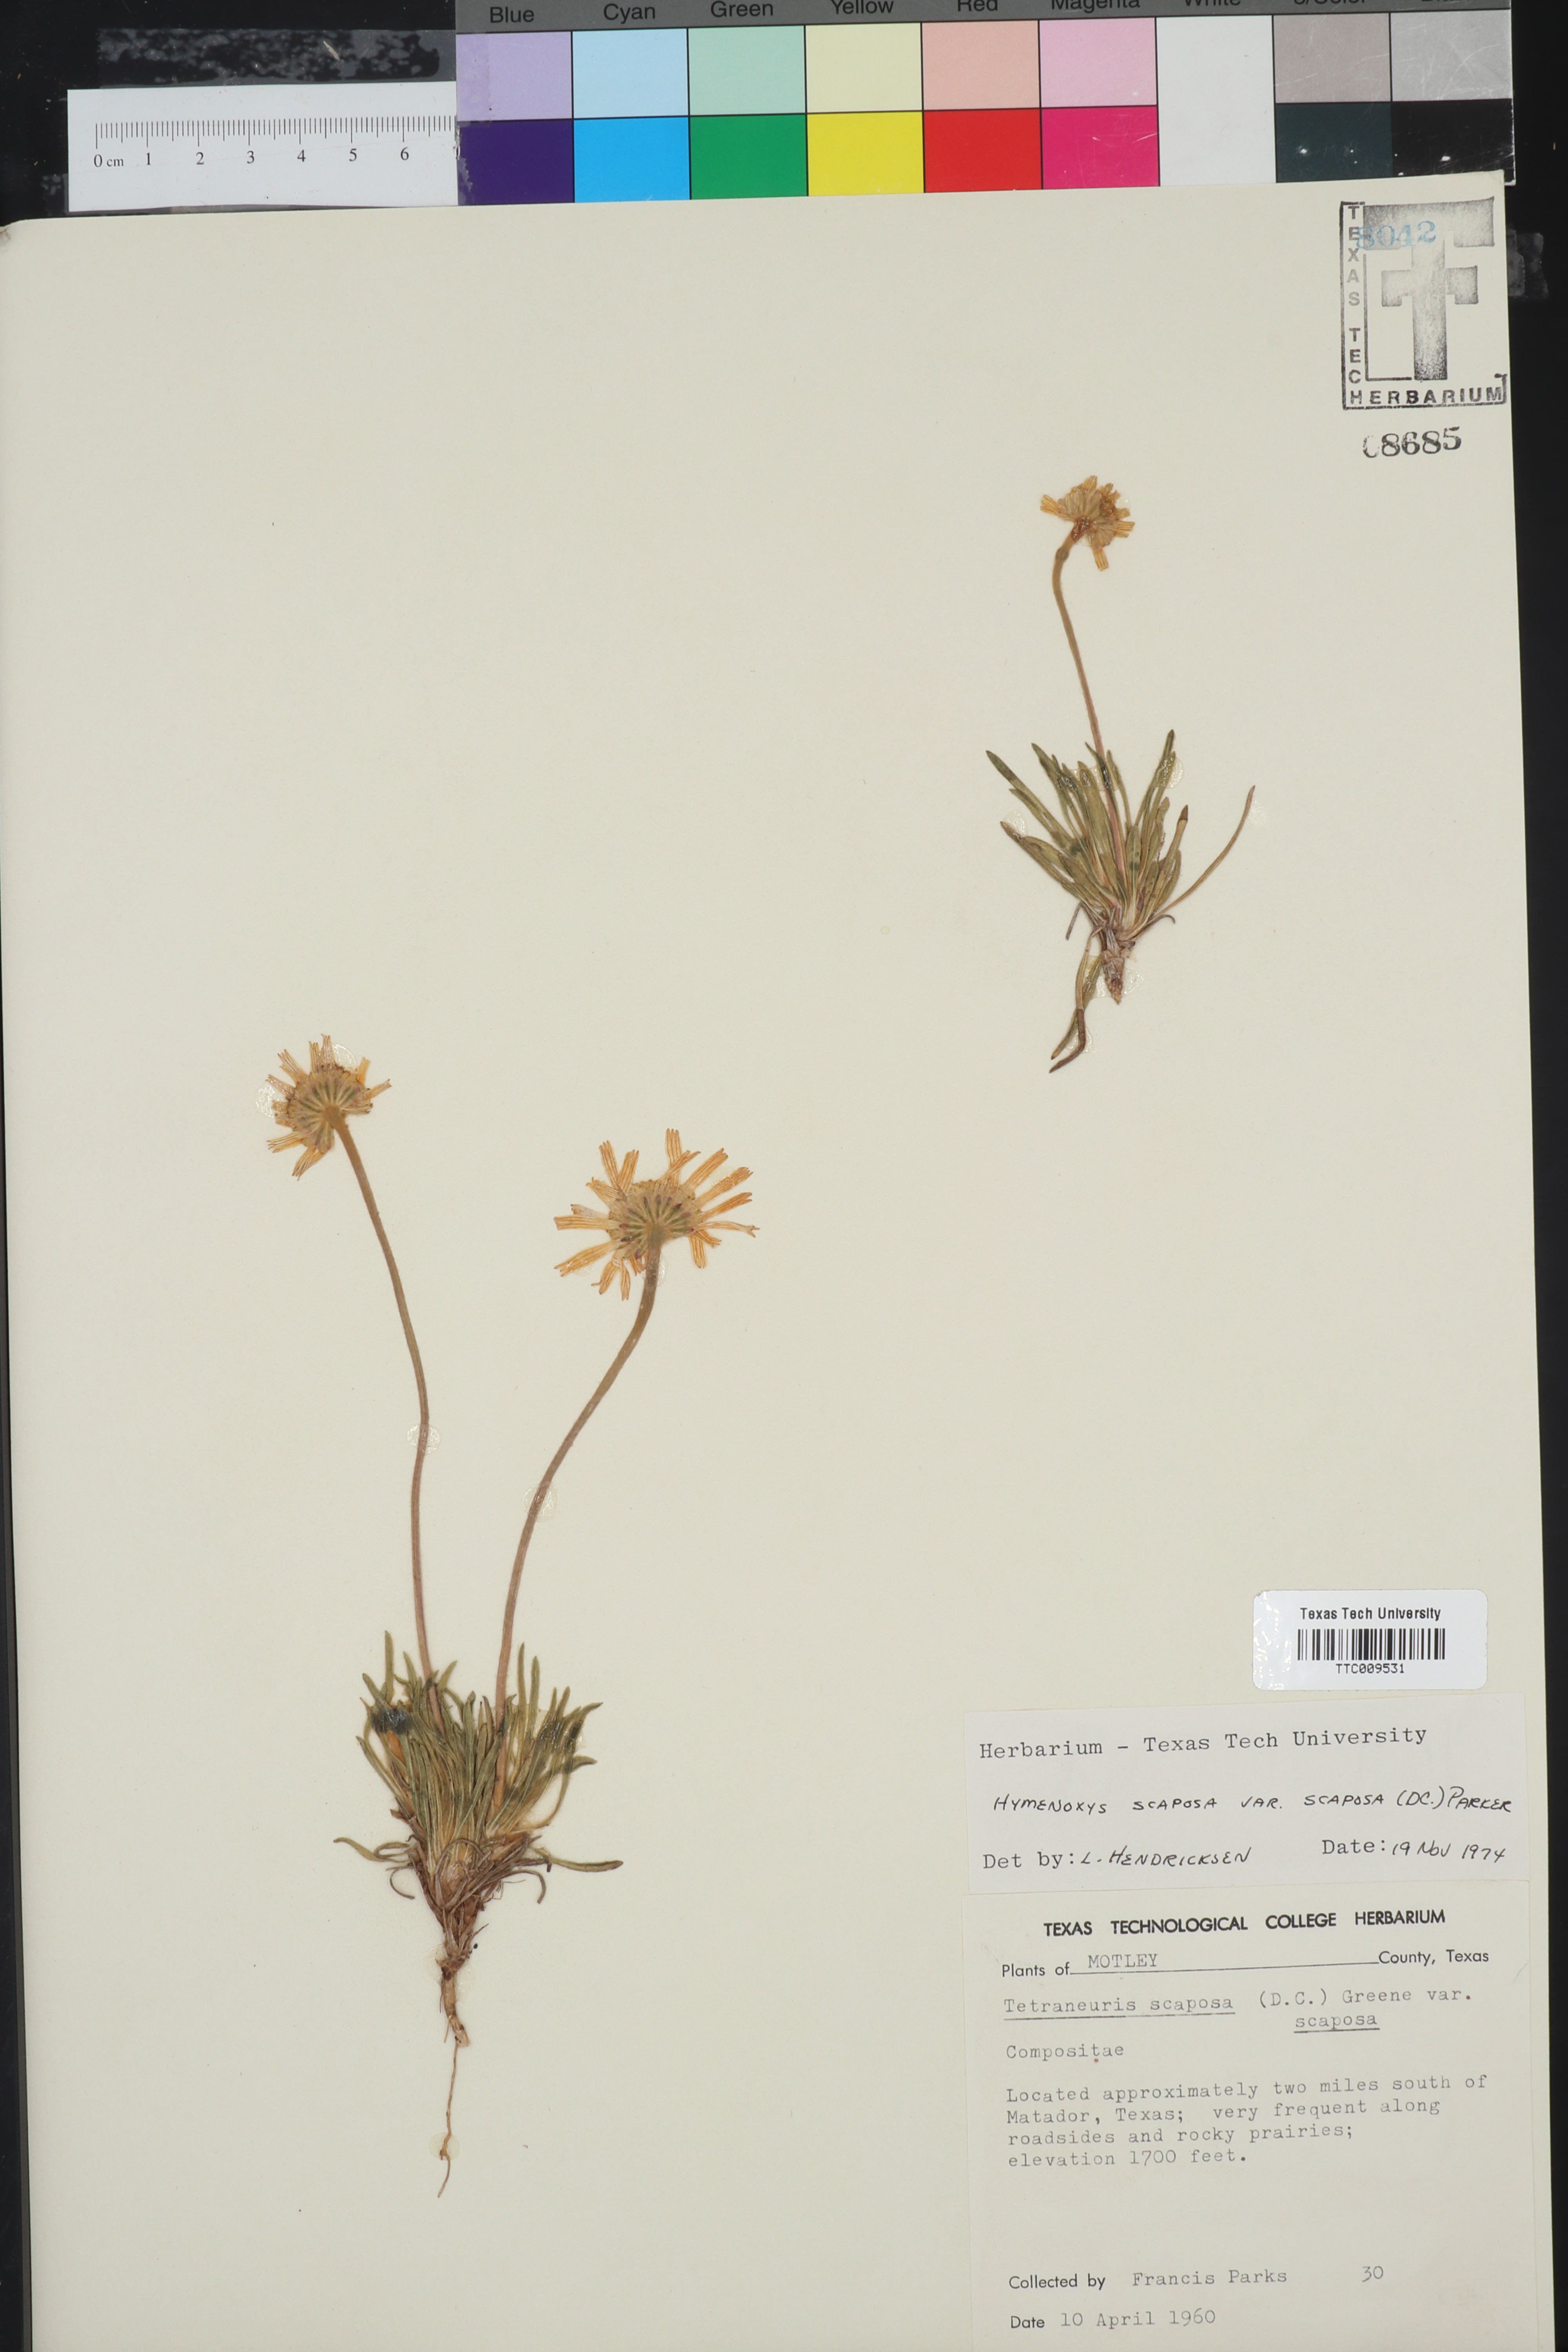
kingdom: Plantae
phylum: Tracheophyta
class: Magnoliopsida
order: Asterales
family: Asteraceae
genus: Tetraneuris
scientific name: Tetraneuris scaposa
